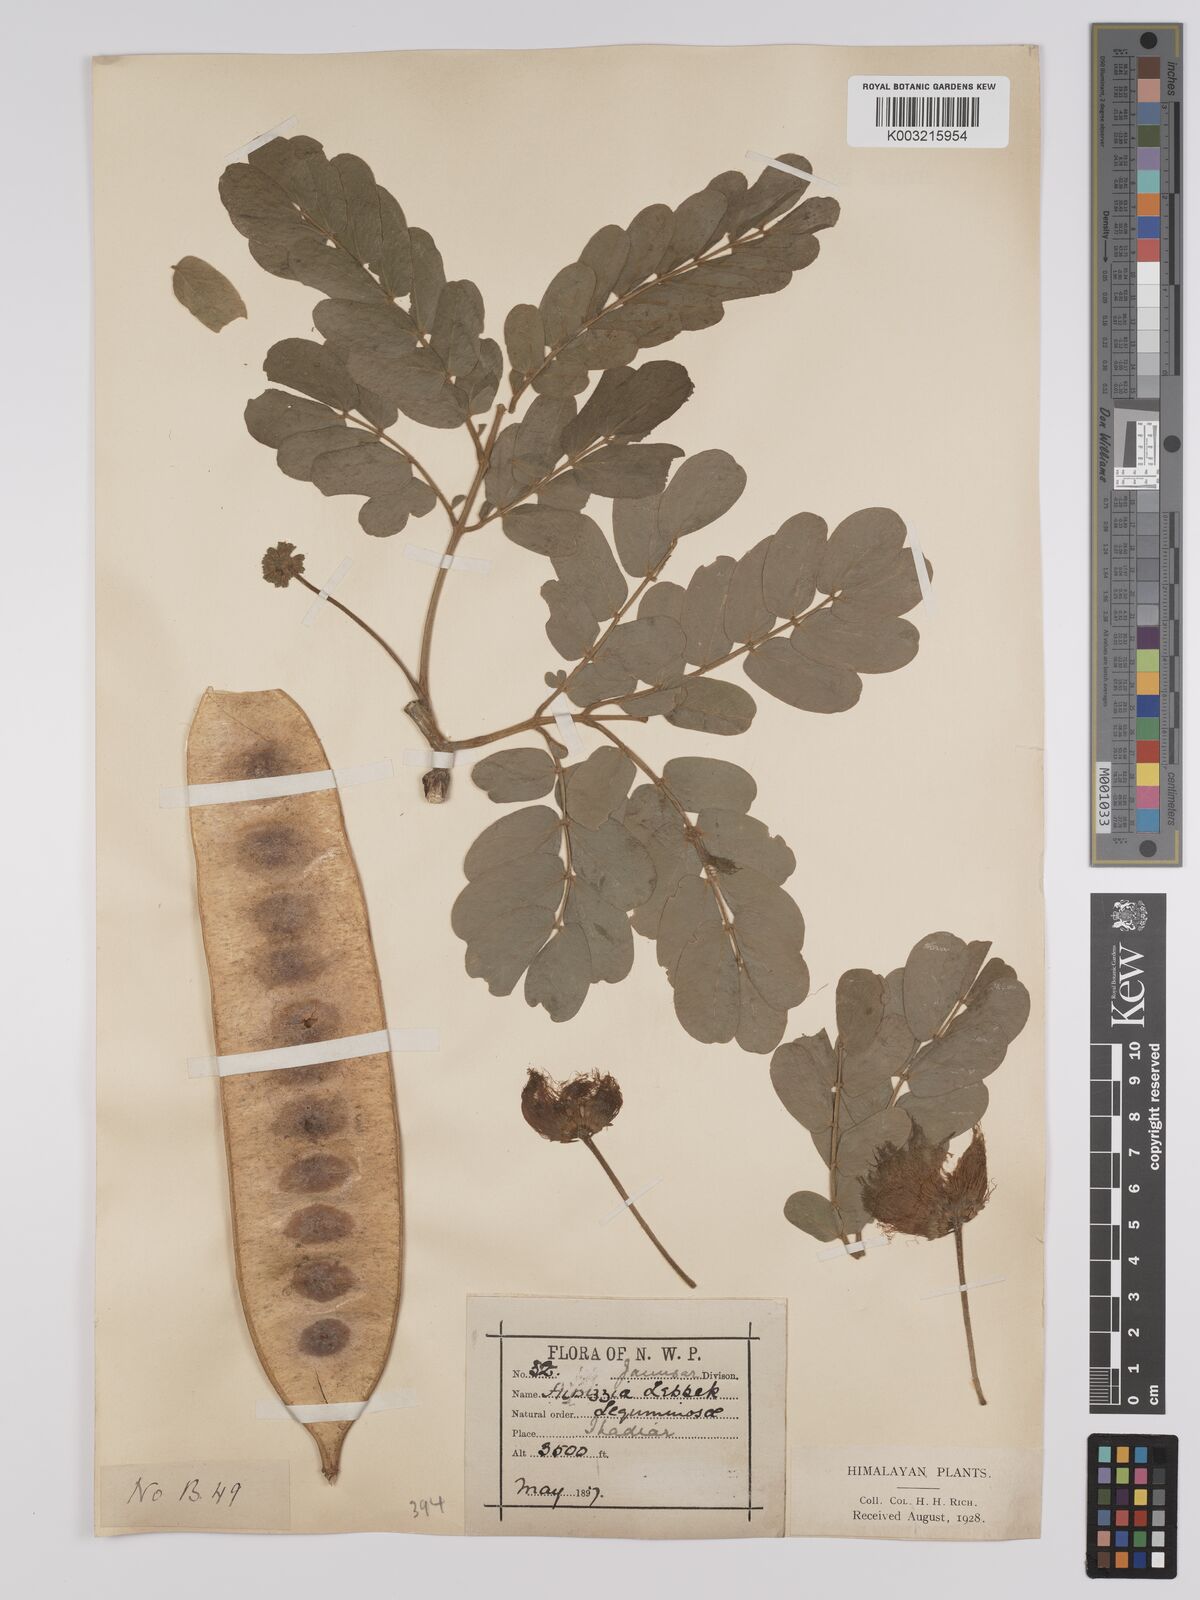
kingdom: Plantae
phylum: Tracheophyta
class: Magnoliopsida
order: Fabales
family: Fabaceae
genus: Albizia
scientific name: Albizia lebbeck
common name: Woman's tongue
